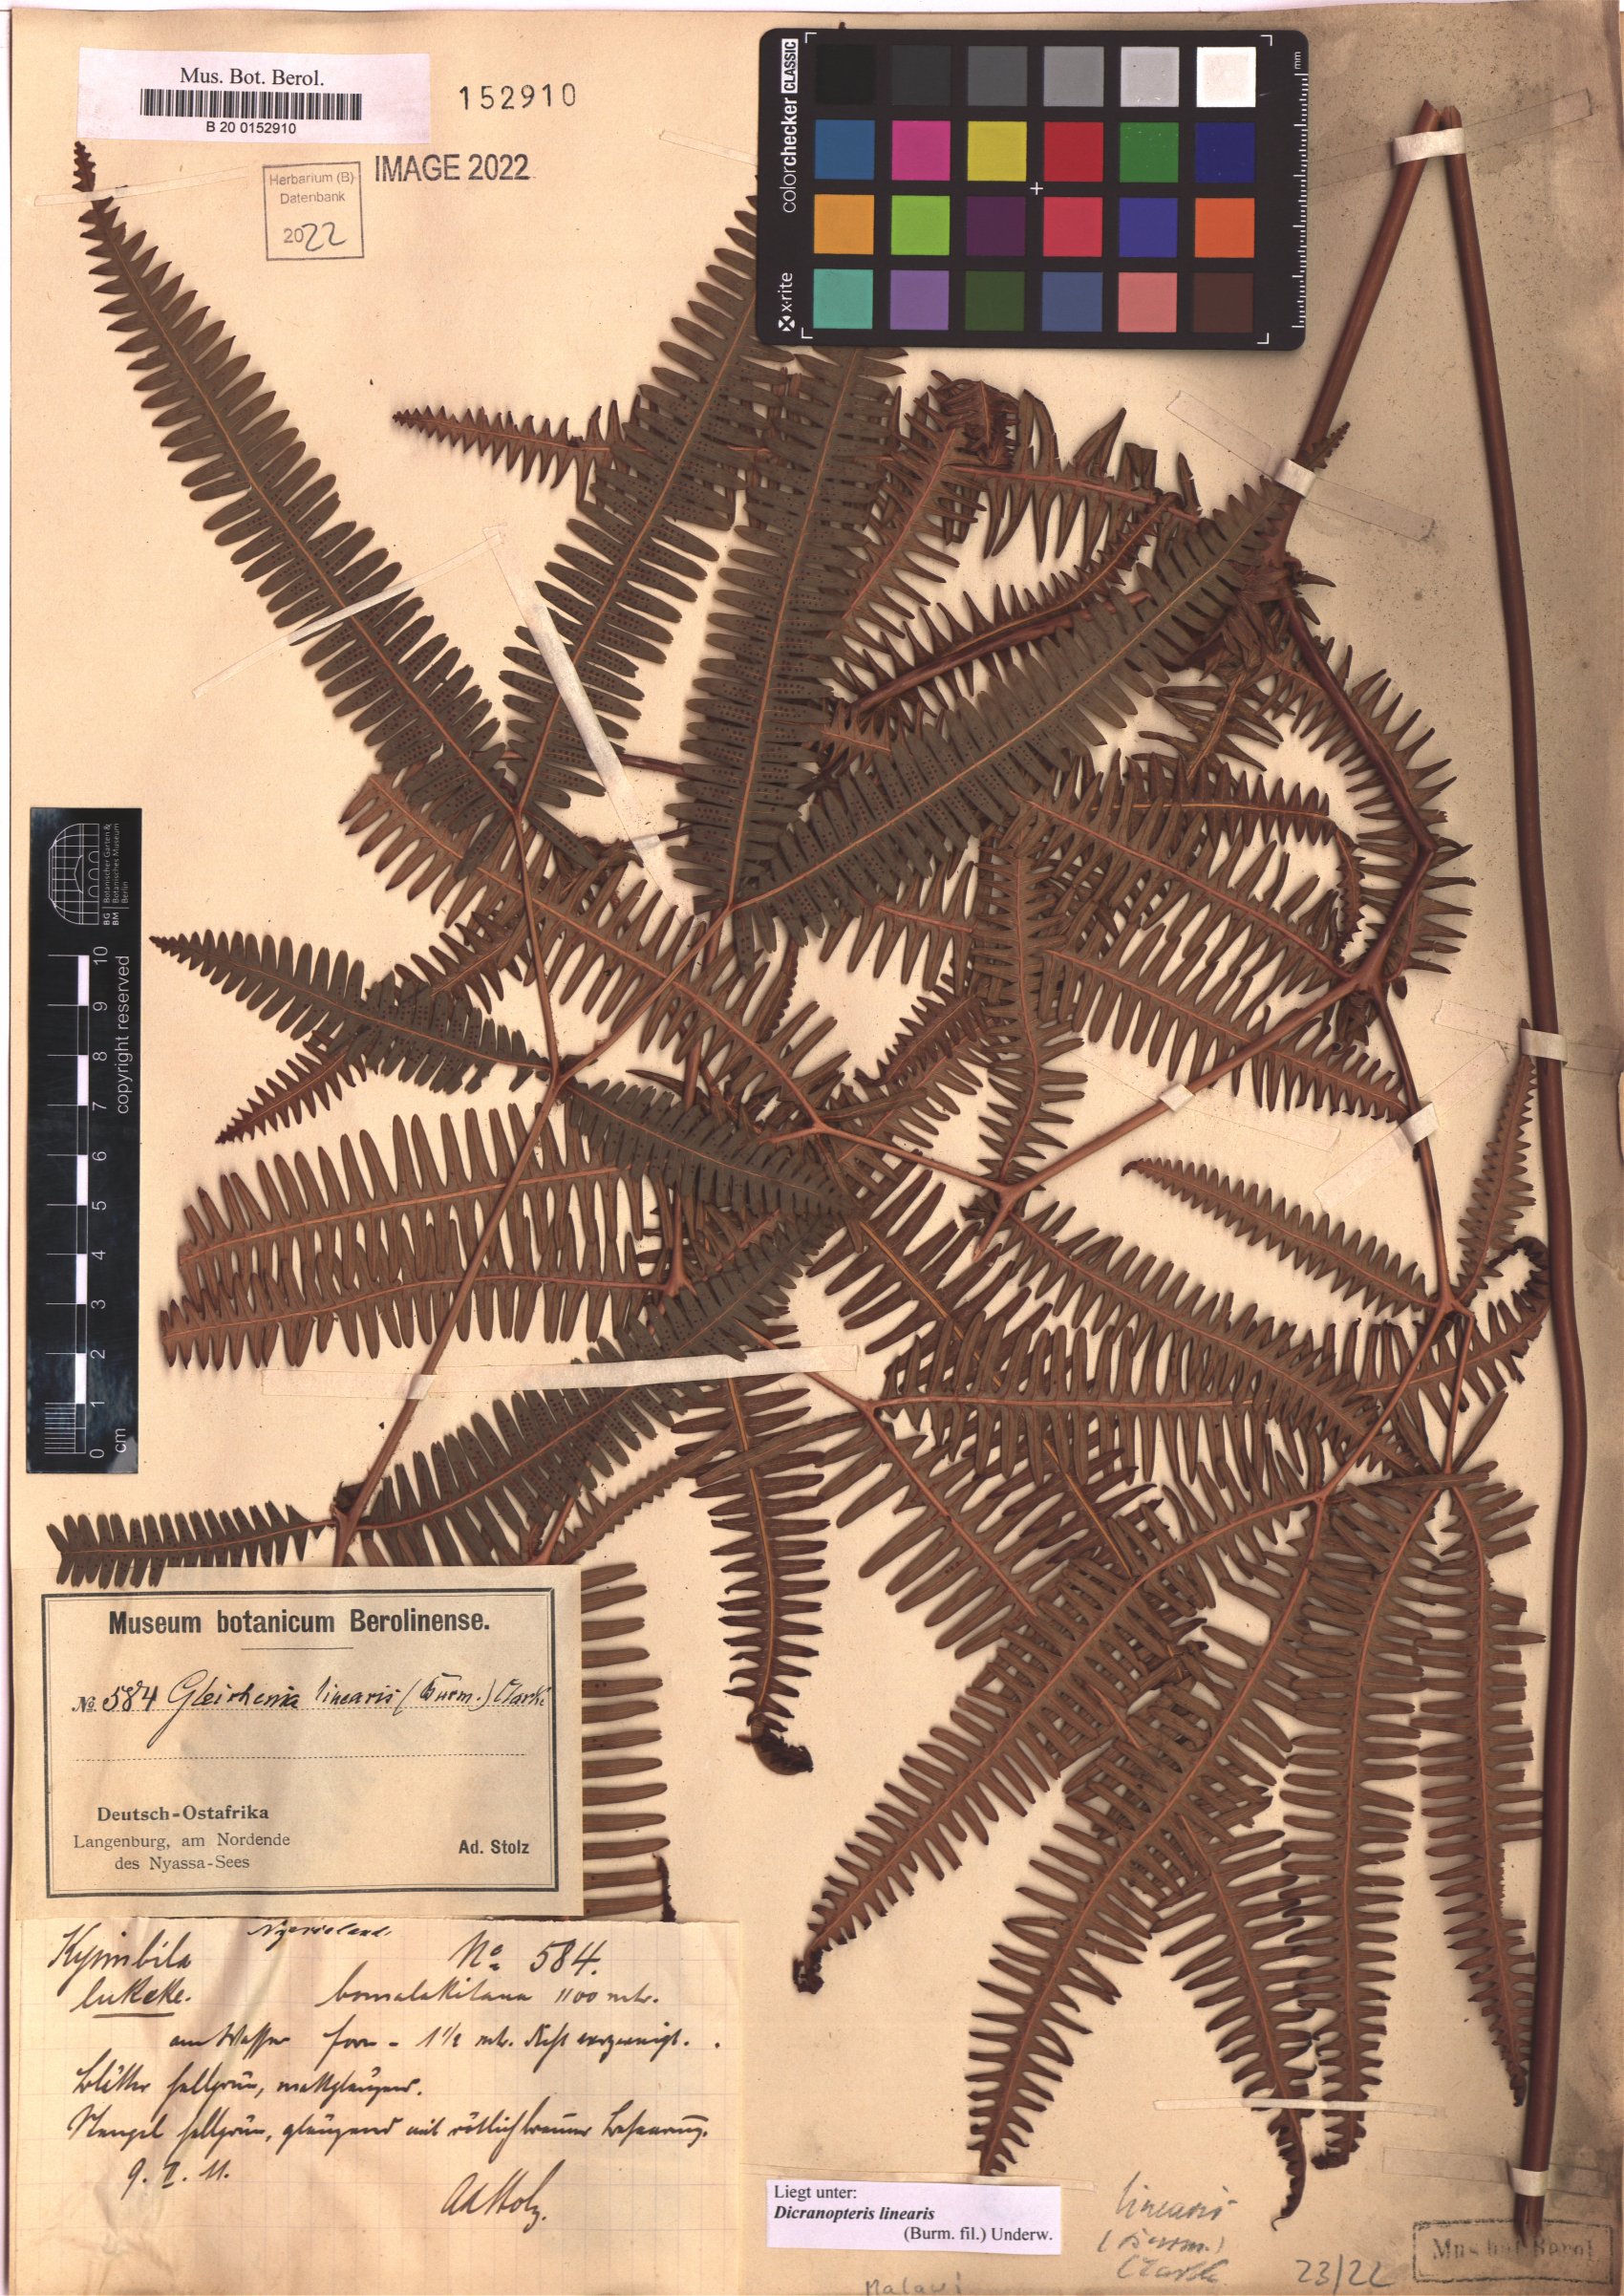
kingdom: Plantae
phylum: Tracheophyta
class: Polypodiopsida
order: Gleicheniales
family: Gleicheniaceae
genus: Dicranopteris
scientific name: Dicranopteris linearis
